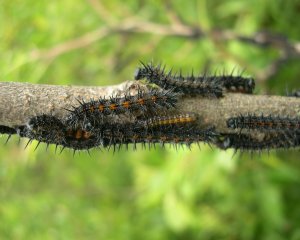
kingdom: Animalia
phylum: Arthropoda
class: Insecta
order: Lepidoptera
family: Nymphalidae
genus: Nymphalis
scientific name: Nymphalis antiopa
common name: Mourning Cloak
